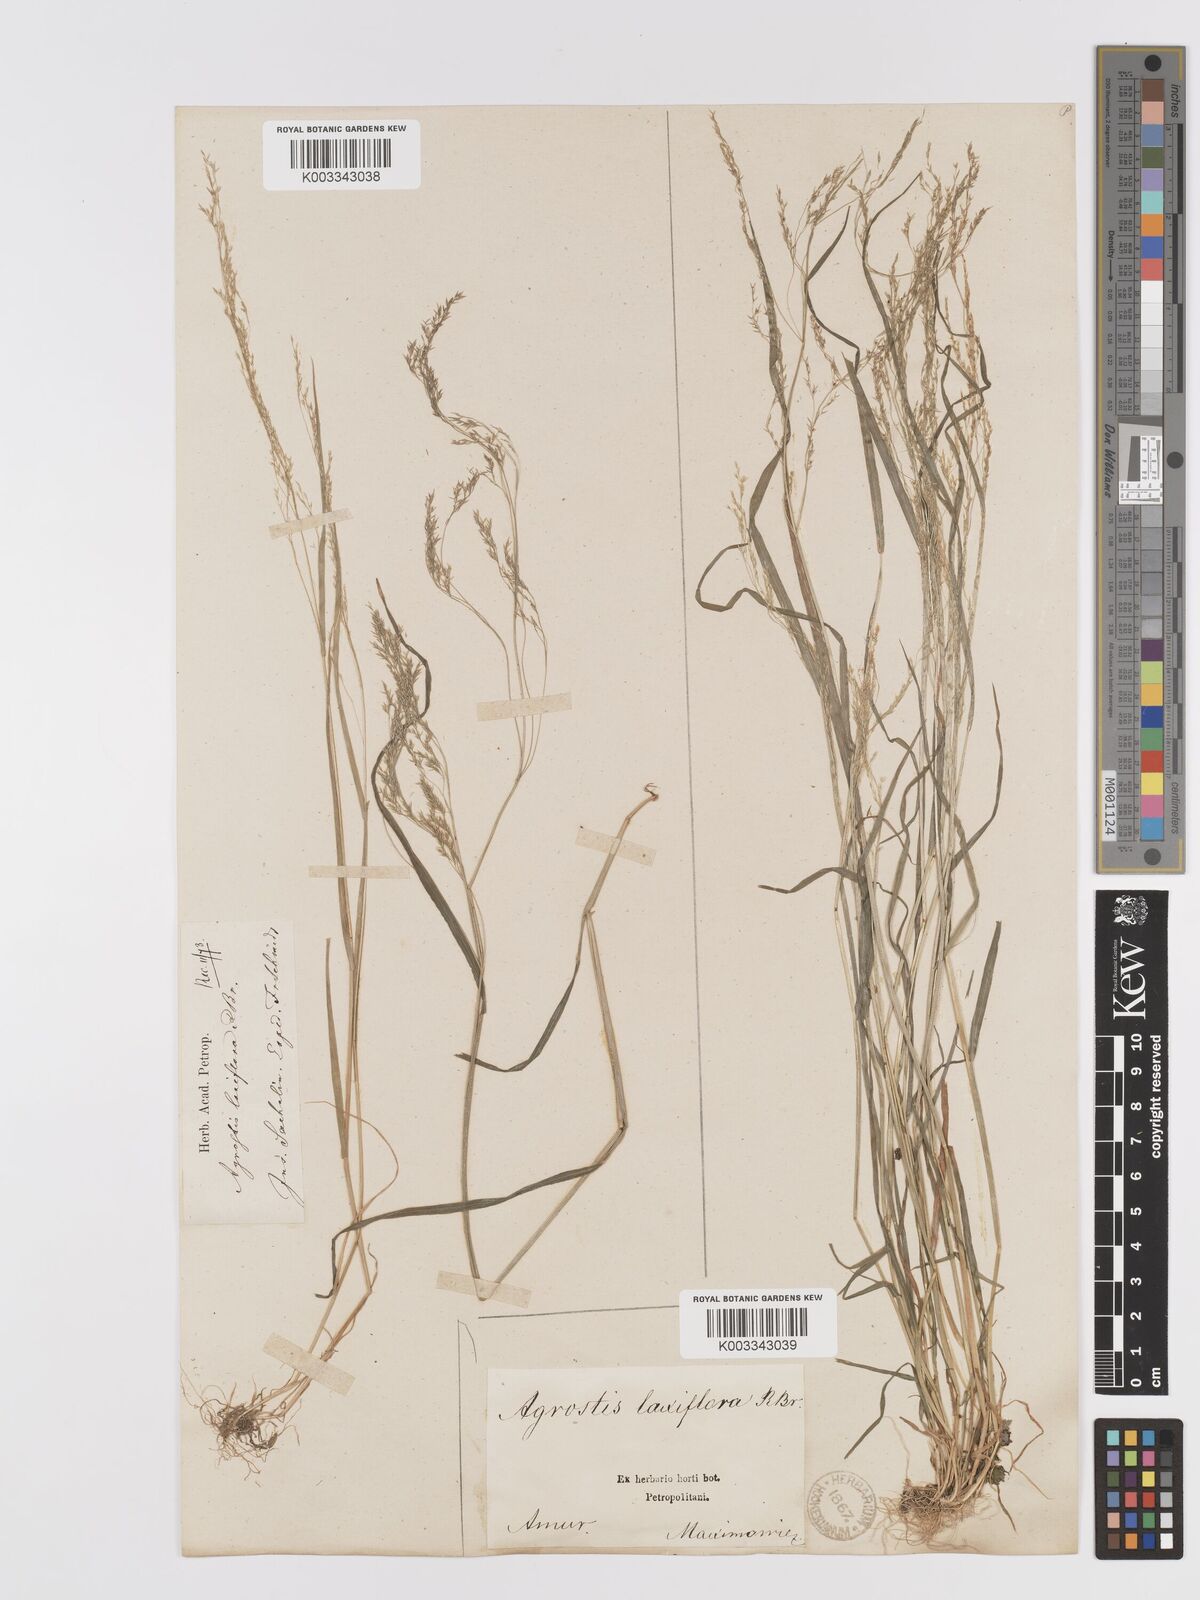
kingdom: Plantae
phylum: Tracheophyta
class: Liliopsida
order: Poales
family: Poaceae
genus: Agrostis
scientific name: Agrostis clavata
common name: Clavate bent
